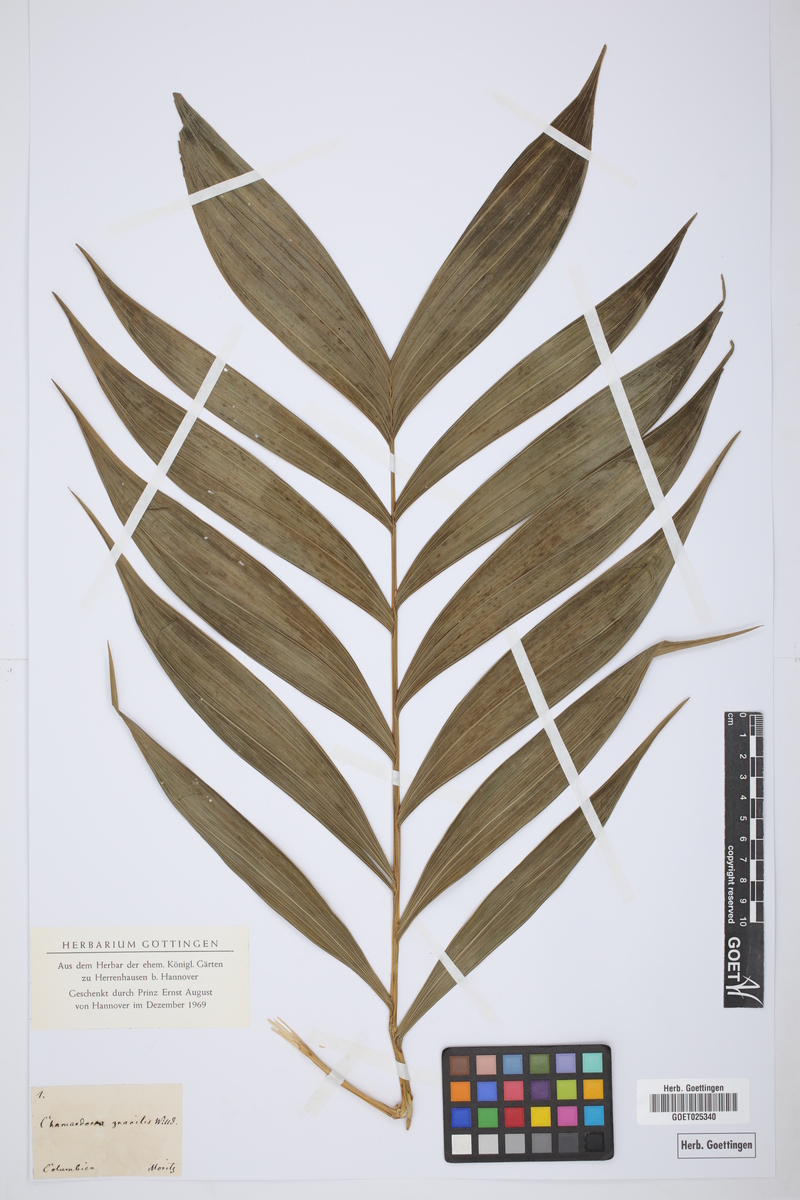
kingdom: Plantae
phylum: Tracheophyta
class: Liliopsida
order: Arecales
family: Arecaceae
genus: Chamaedorea
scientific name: Chamaedorea pinnatifrons
